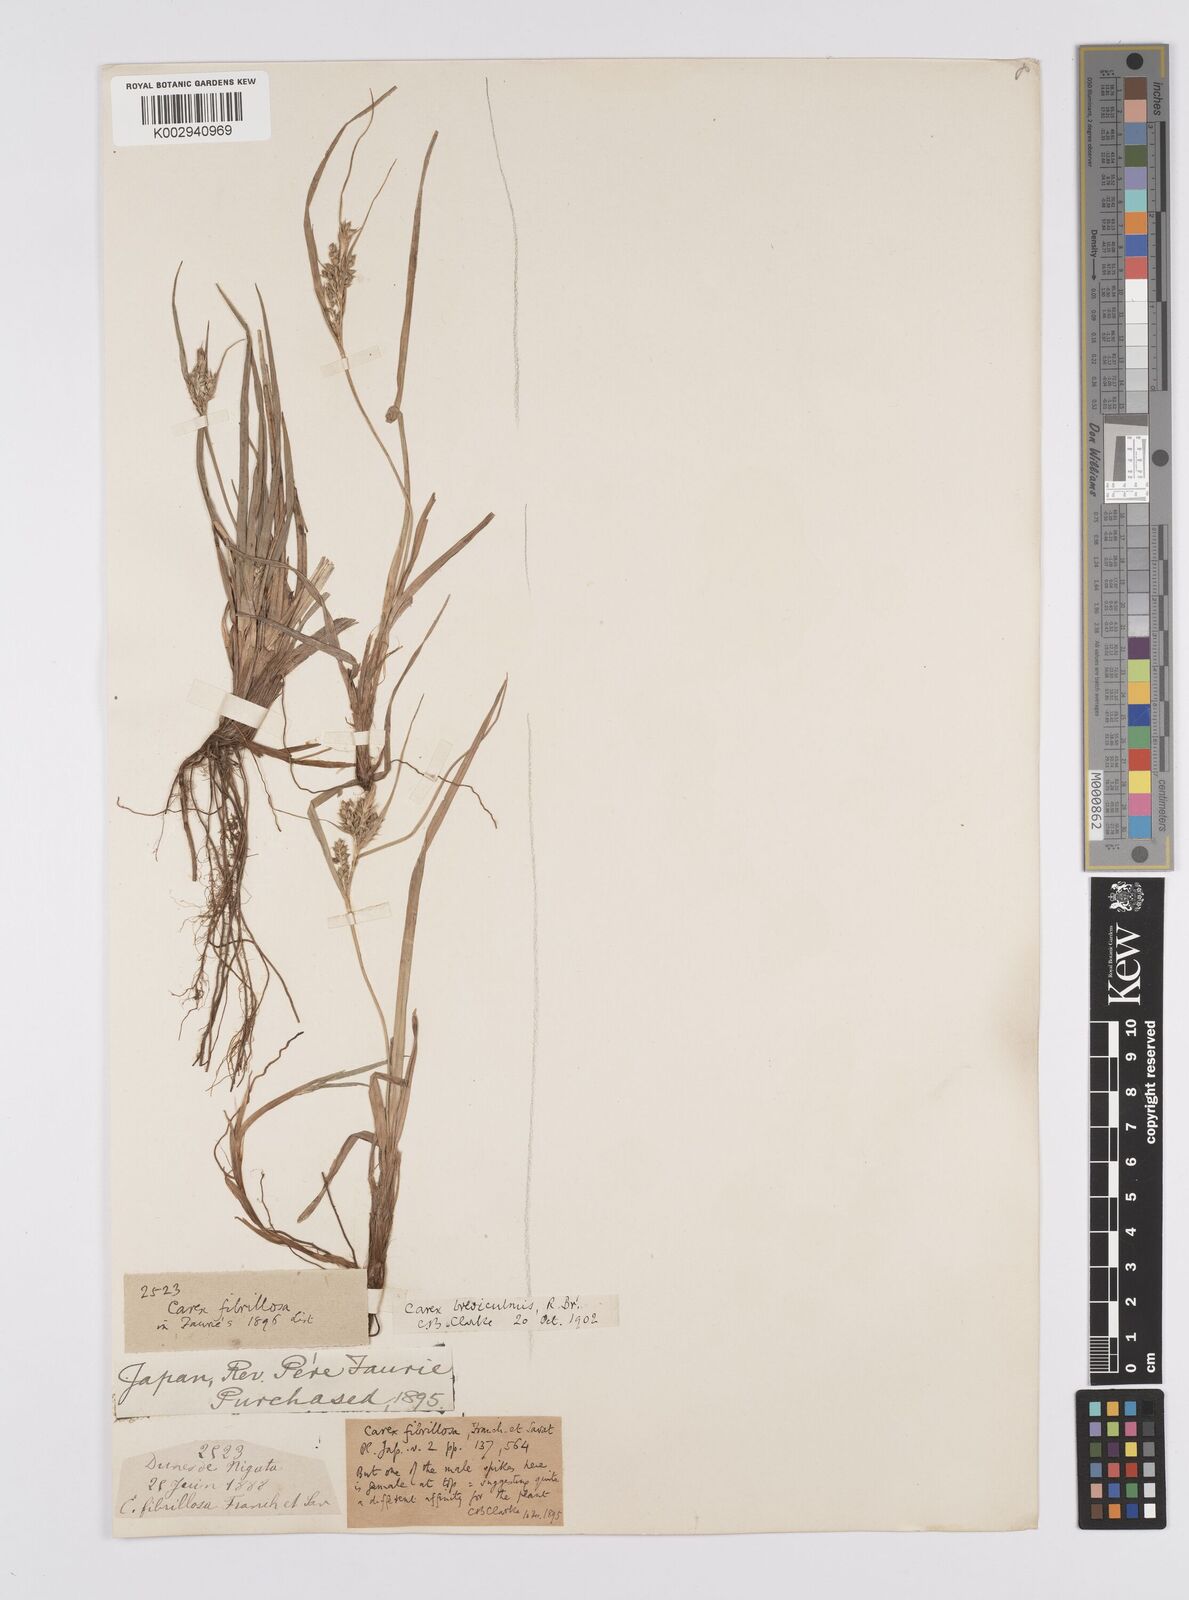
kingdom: Plantae
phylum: Tracheophyta
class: Liliopsida
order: Poales
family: Cyperaceae
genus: Carex
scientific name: Carex fibrillosa
